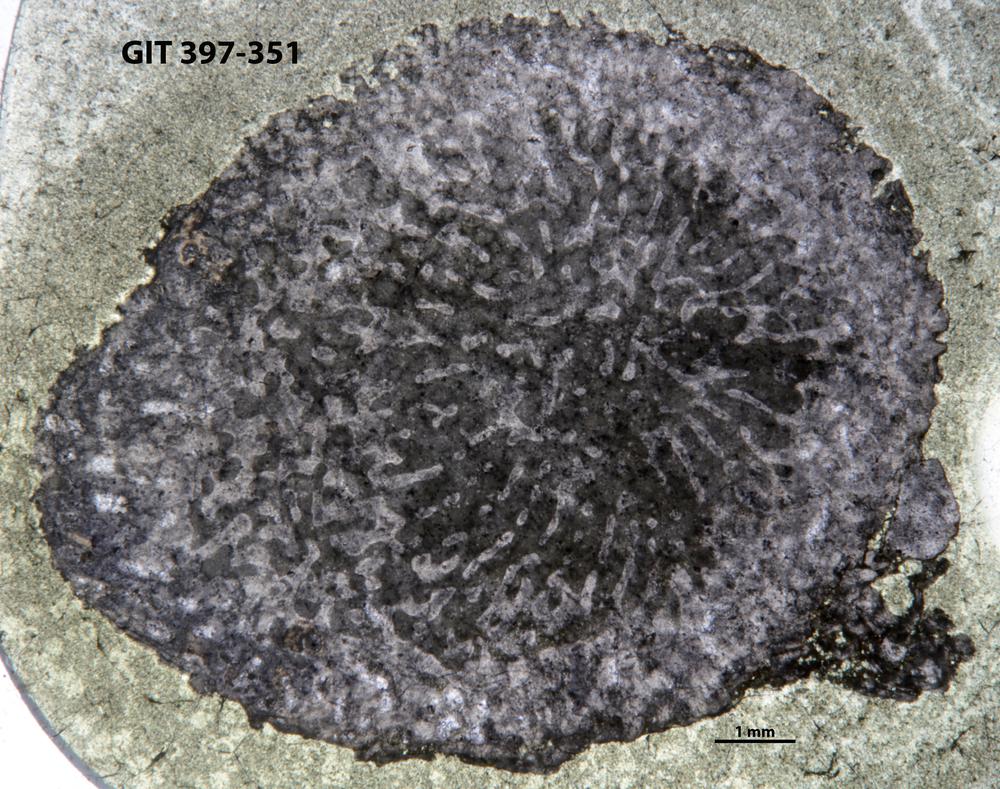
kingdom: Animalia
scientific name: Animalia
